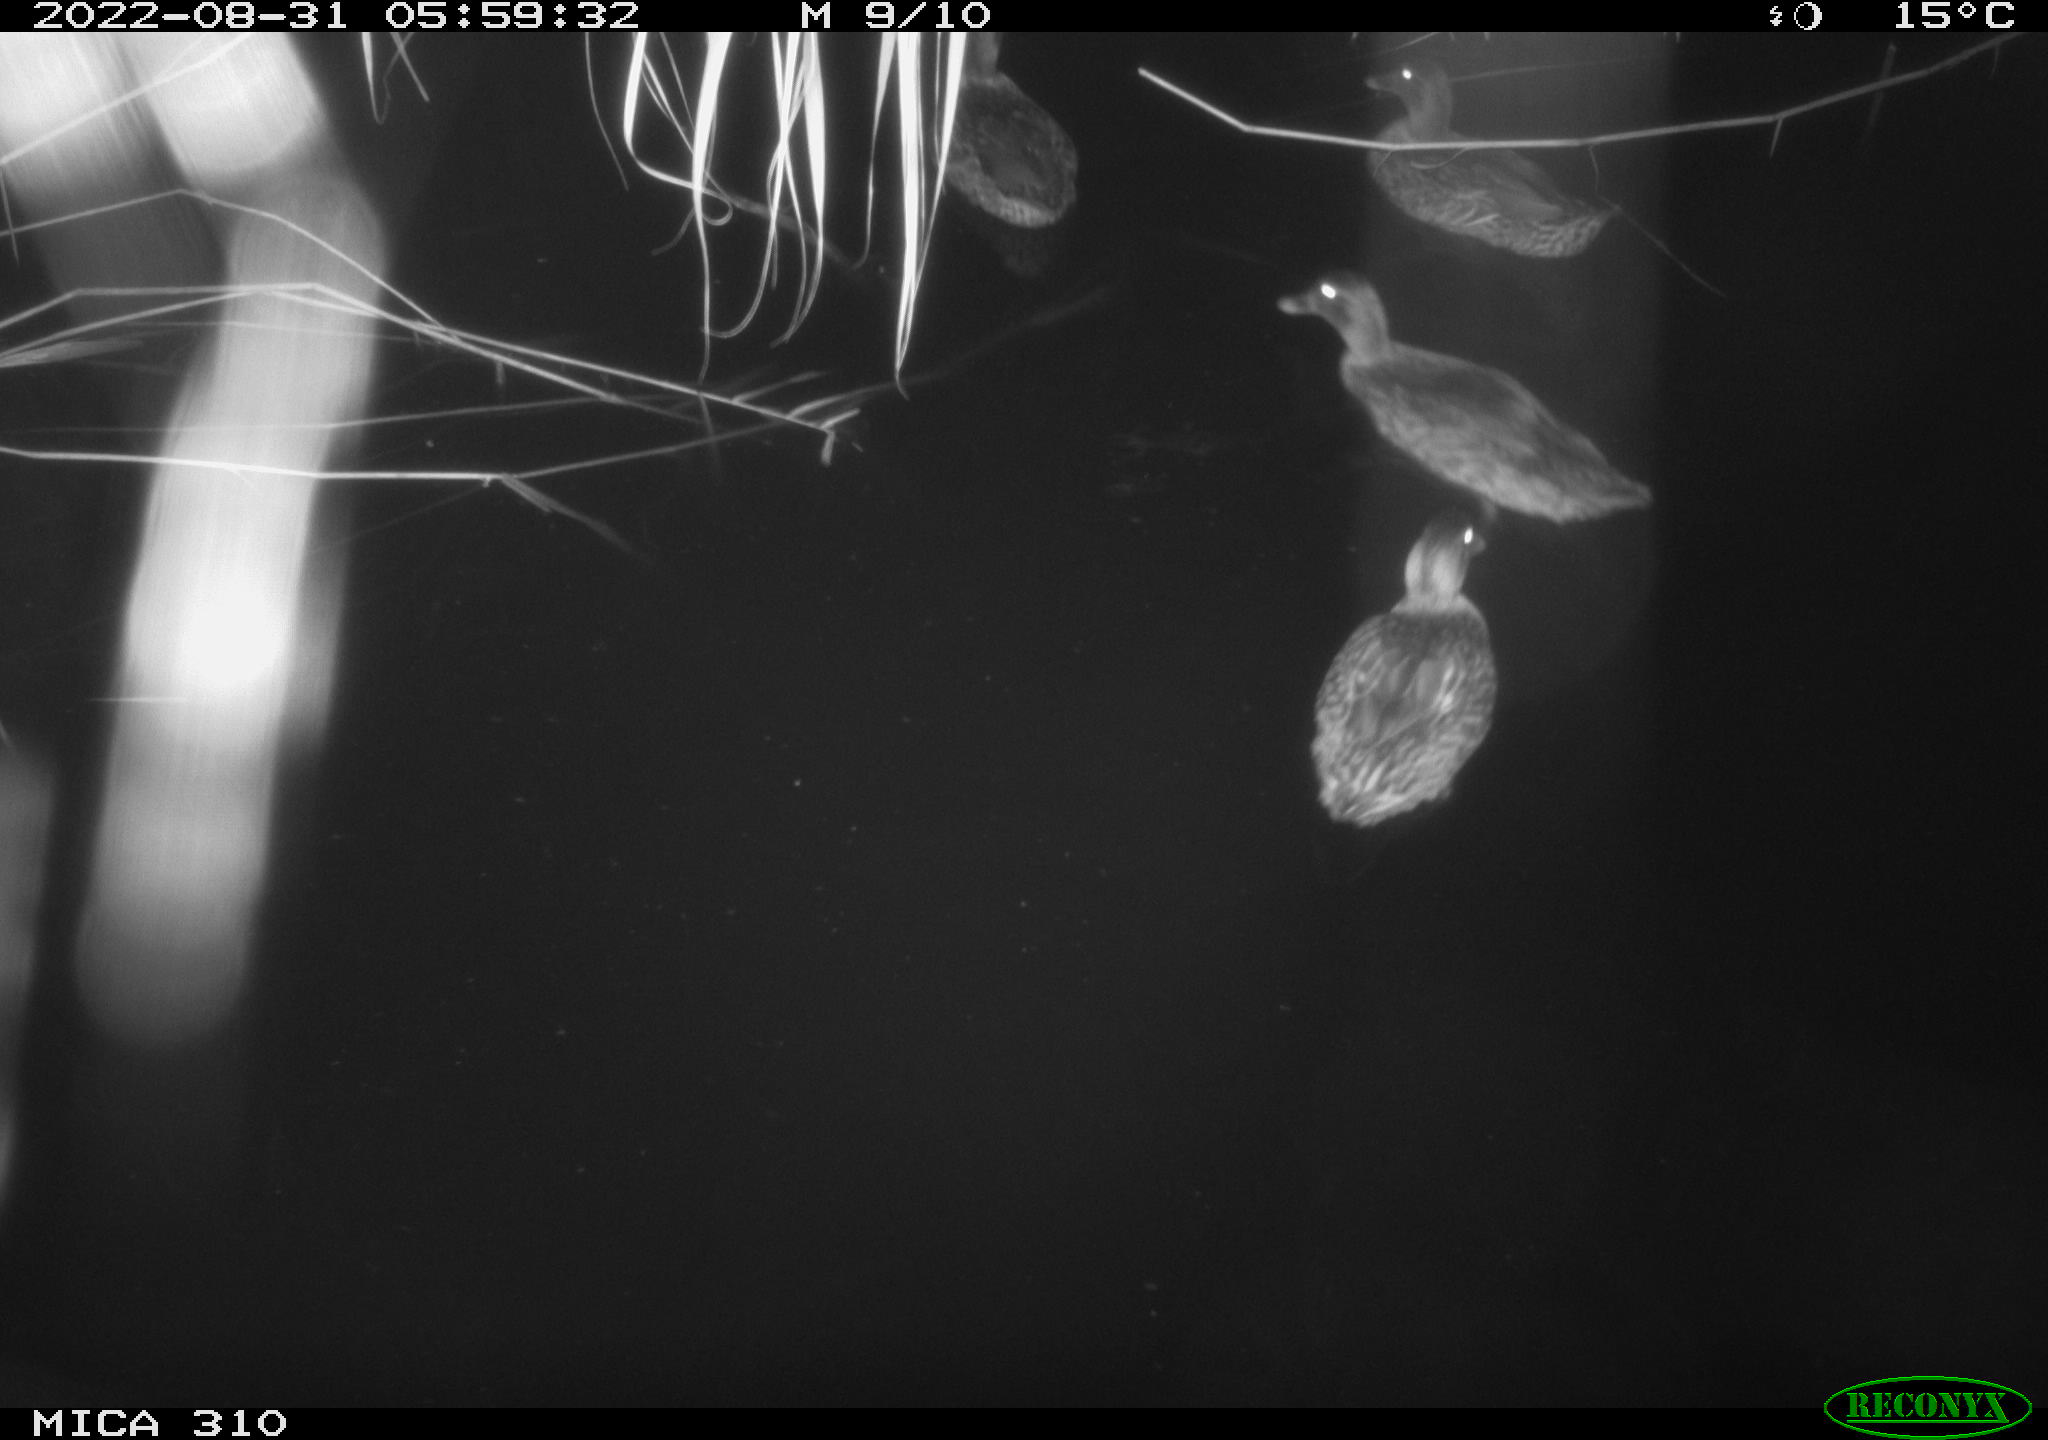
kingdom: Animalia
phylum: Chordata
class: Aves
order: Anseriformes
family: Anatidae
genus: Anas
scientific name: Anas platyrhynchos
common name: Mallard
